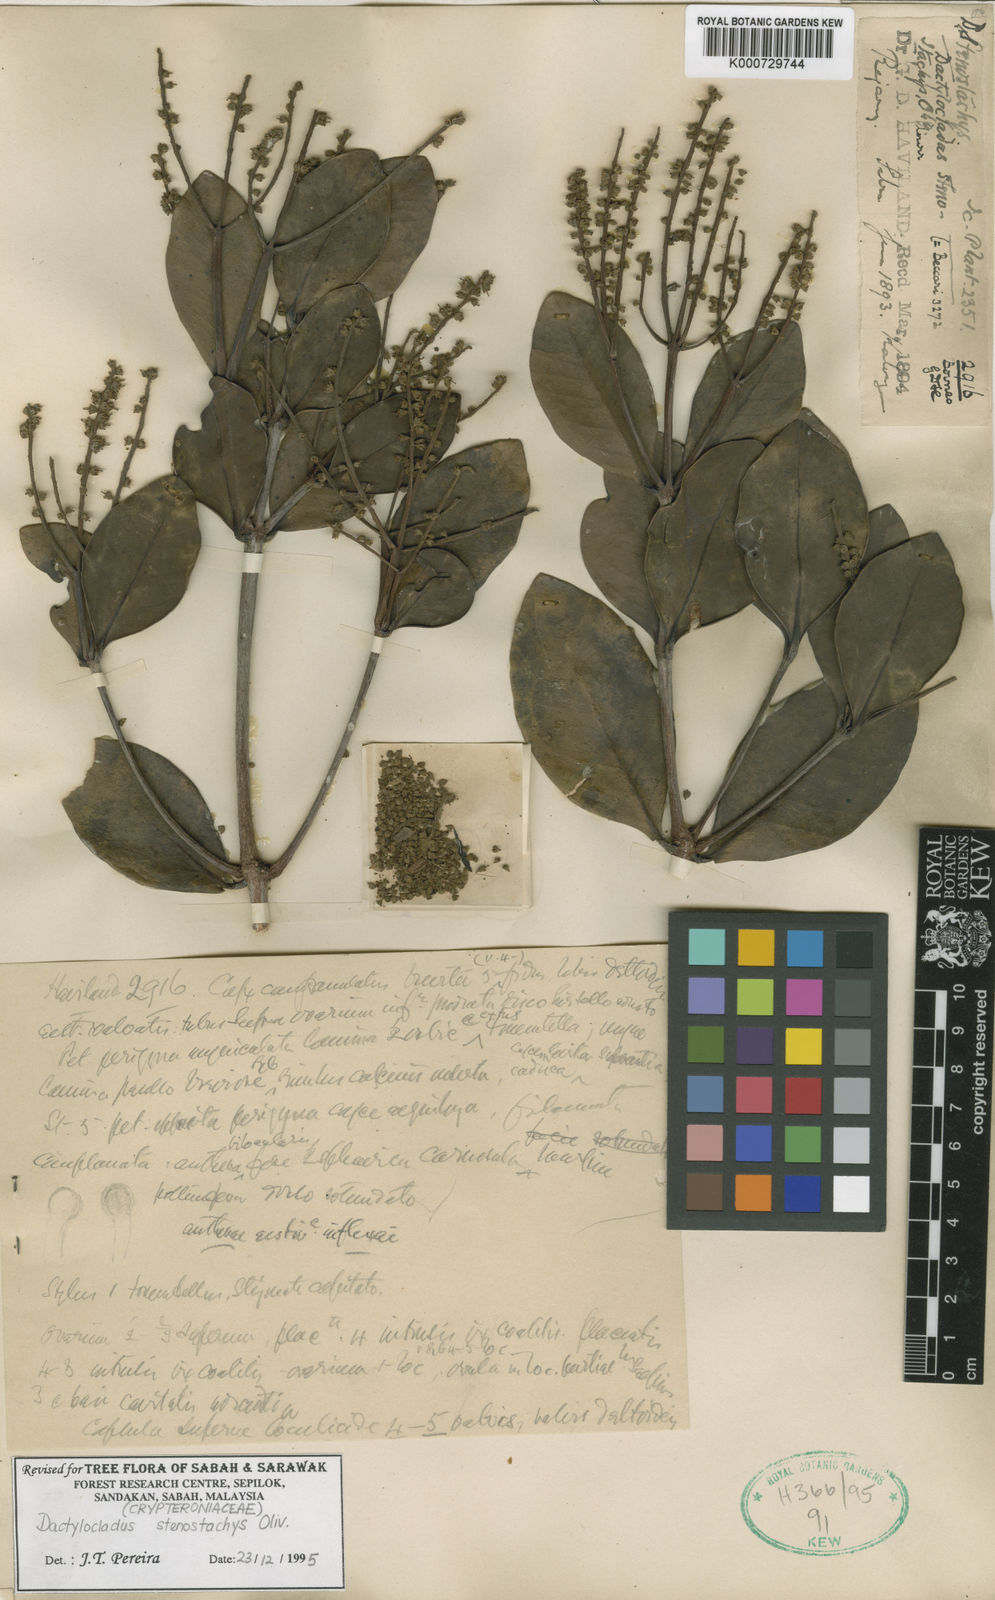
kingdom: Plantae
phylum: Tracheophyta
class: Magnoliopsida
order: Myrtales
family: Crypteroniaceae
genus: Dactylocladus
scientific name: Dactylocladus stenostachys
